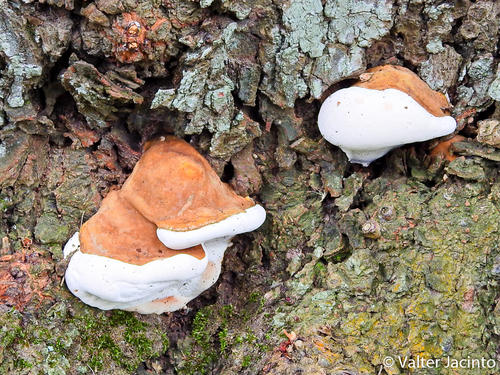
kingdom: Fungi
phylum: Basidiomycota
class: Agaricomycetes
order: Polyporales
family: Polyporaceae
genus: Ganoderma
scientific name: Ganoderma resinaceum
